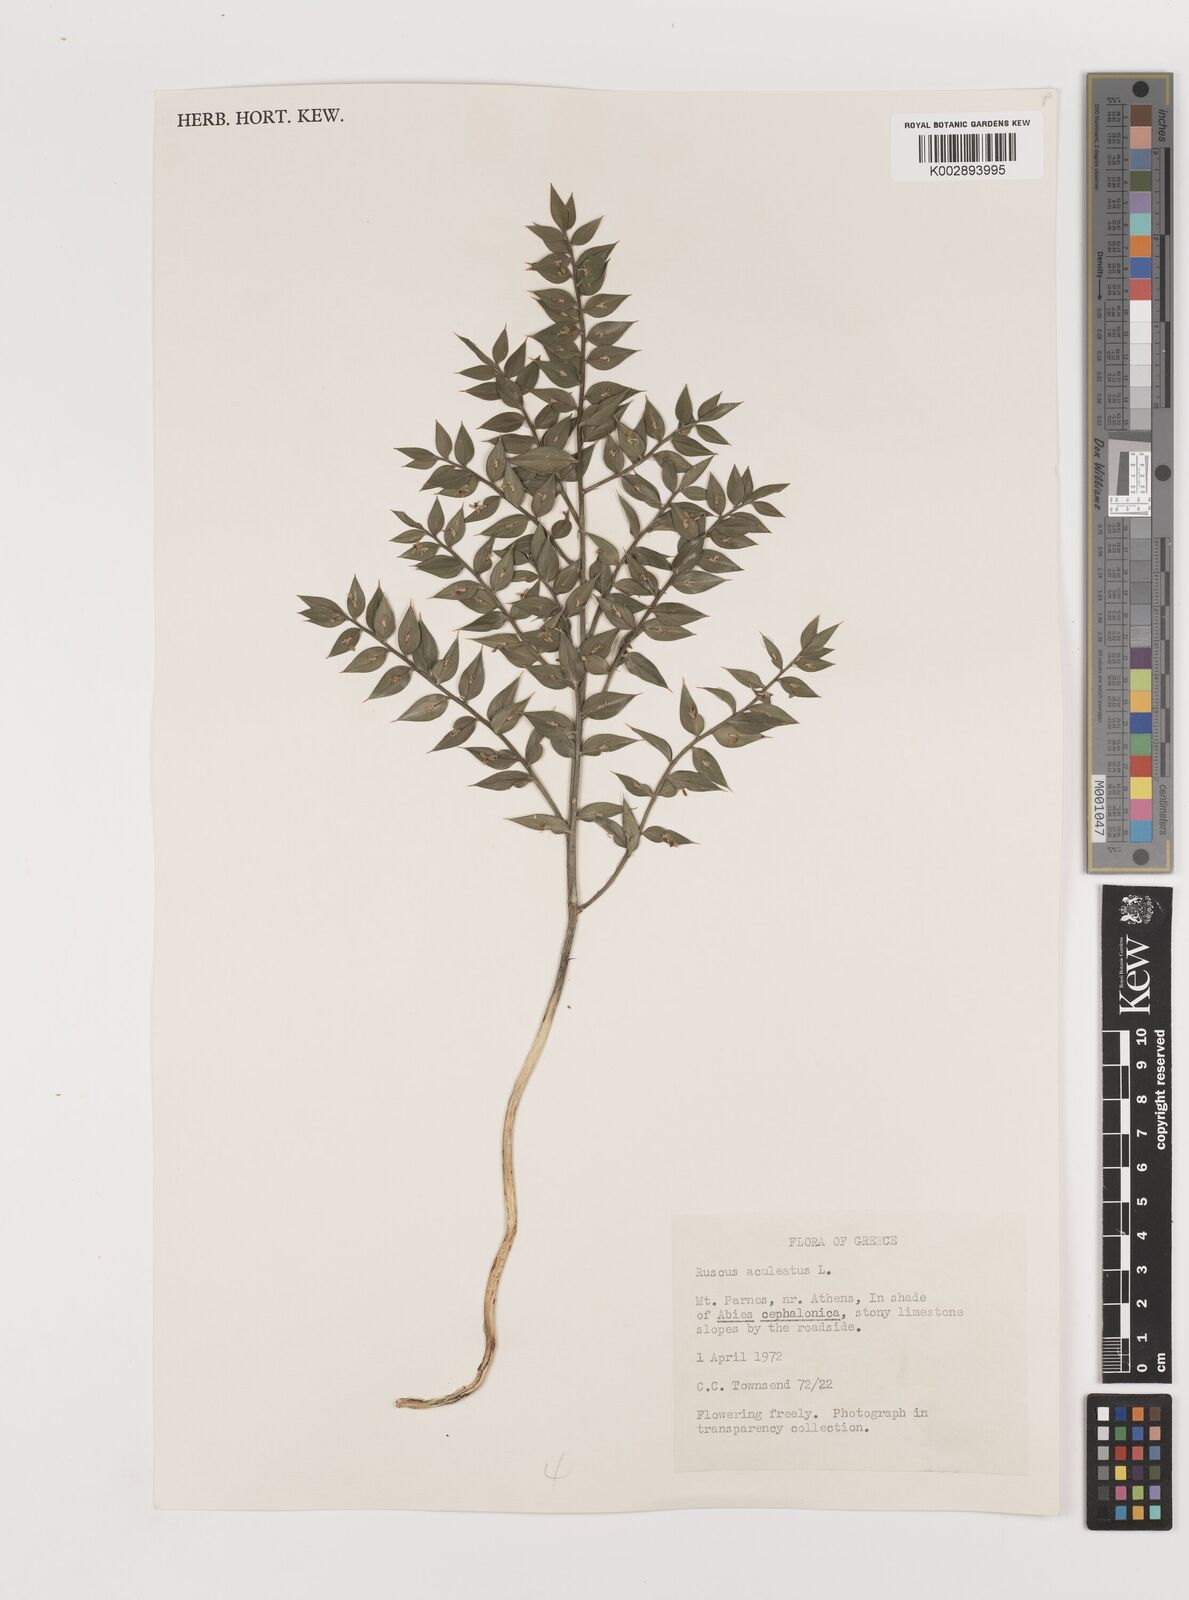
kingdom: Plantae
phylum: Tracheophyta
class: Liliopsida
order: Asparagales
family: Asparagaceae
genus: Ruscus
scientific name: Ruscus aculeatus
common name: Butcher's-broom
